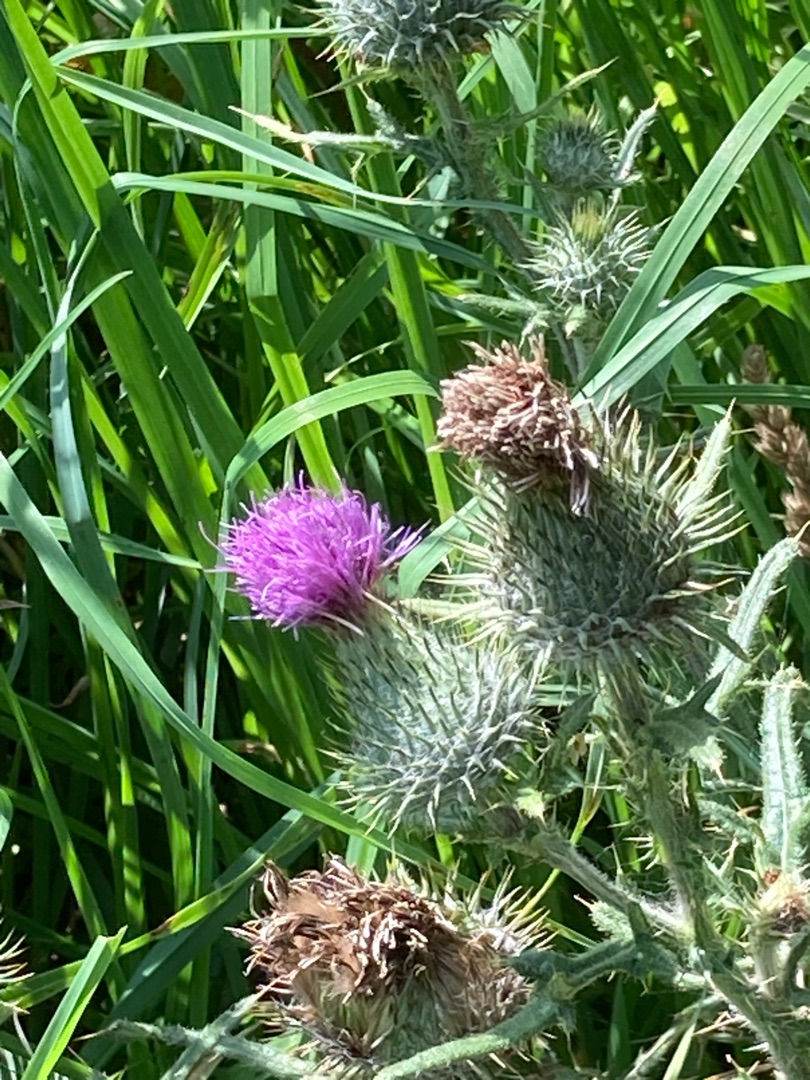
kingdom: Plantae
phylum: Tracheophyta
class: Magnoliopsida
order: Asterales
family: Asteraceae
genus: Cirsium
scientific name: Cirsium vulgare
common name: Horse-tidsel
